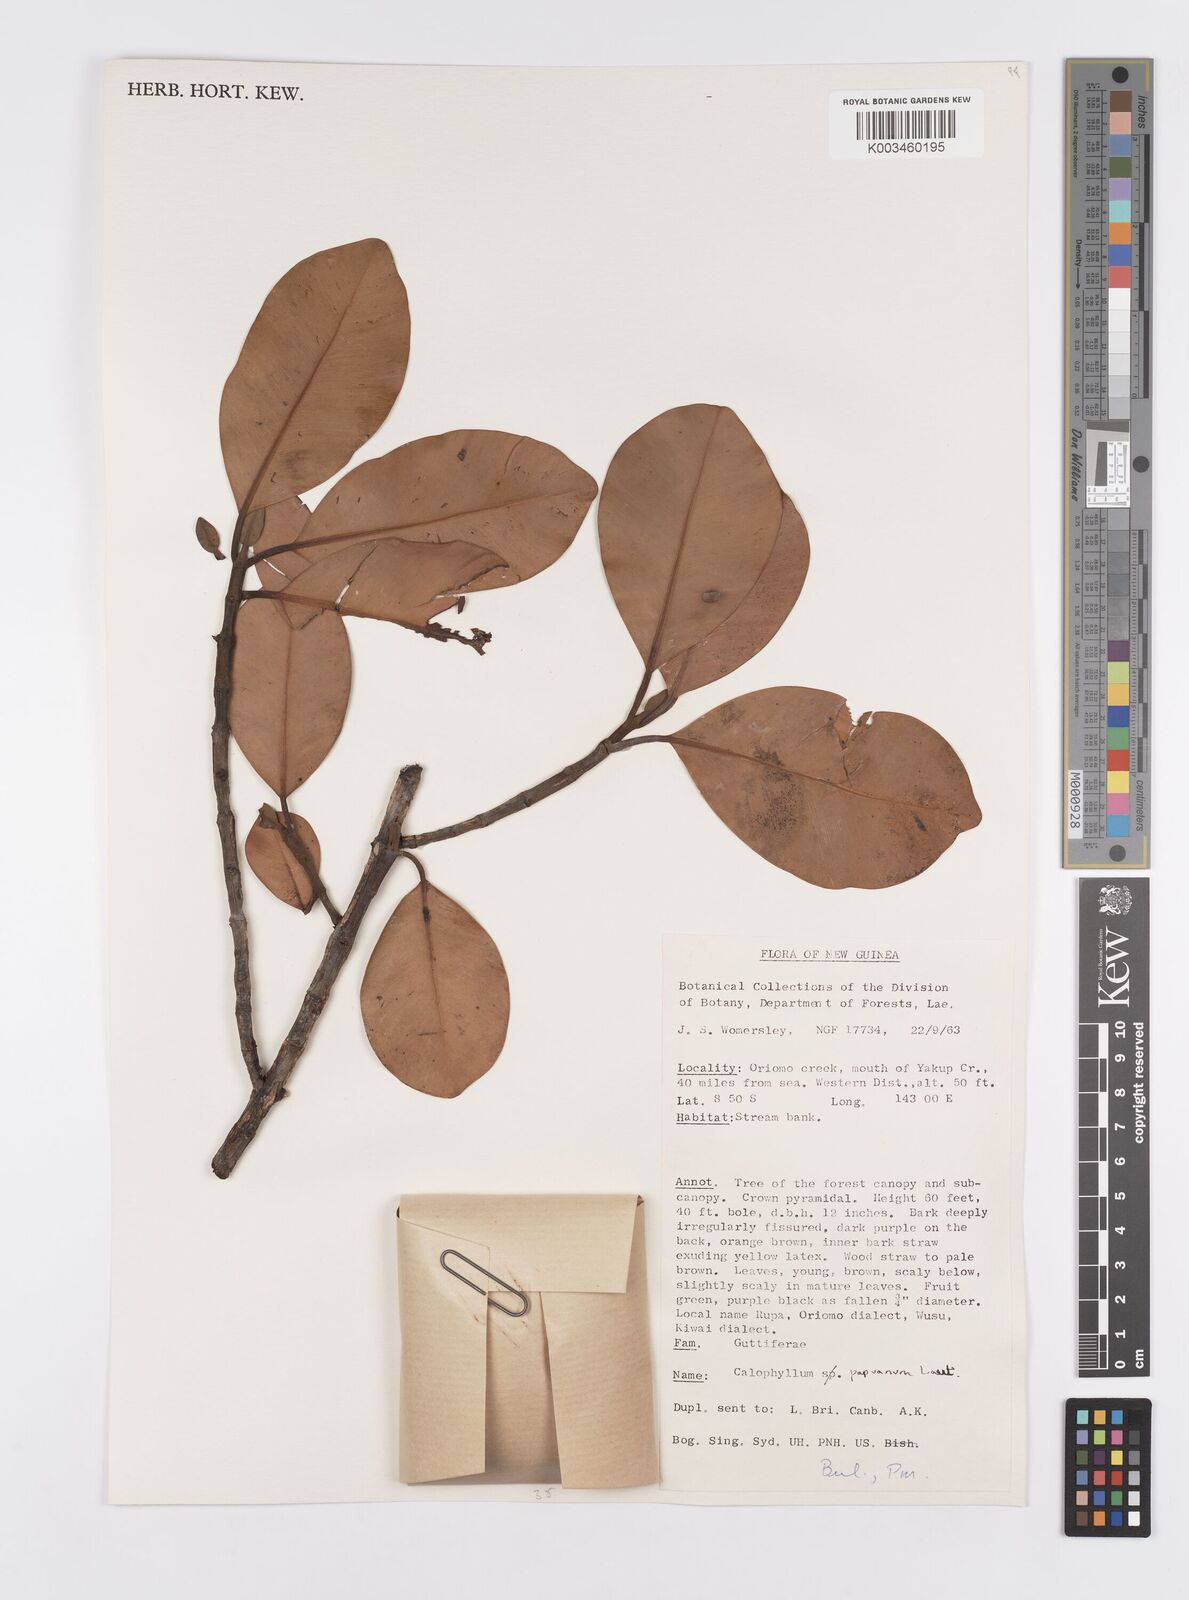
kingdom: Plantae
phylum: Tracheophyta
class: Magnoliopsida
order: Malpighiales
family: Calophyllaceae
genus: Calophyllum
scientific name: Calophyllum papuanum
